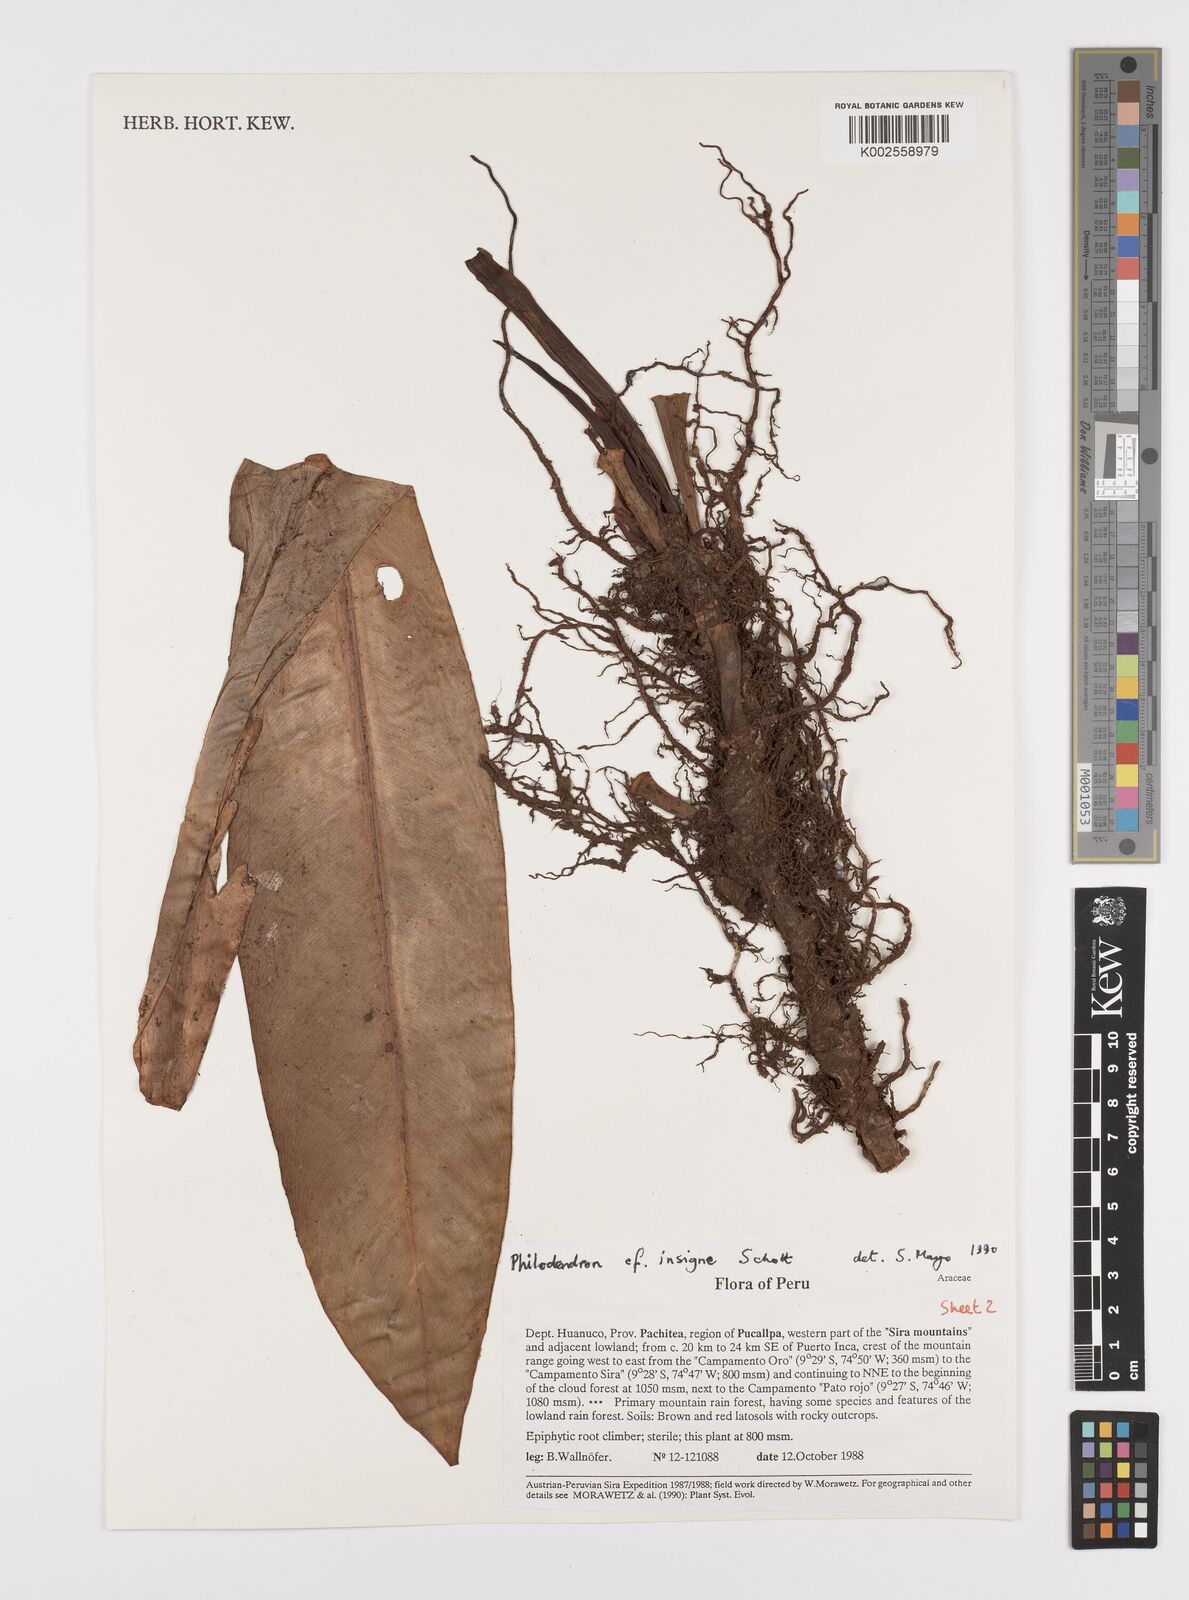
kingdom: Plantae
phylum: Tracheophyta
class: Liliopsida
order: Alismatales
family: Araceae
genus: Philodendron
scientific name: Philodendron insigne
